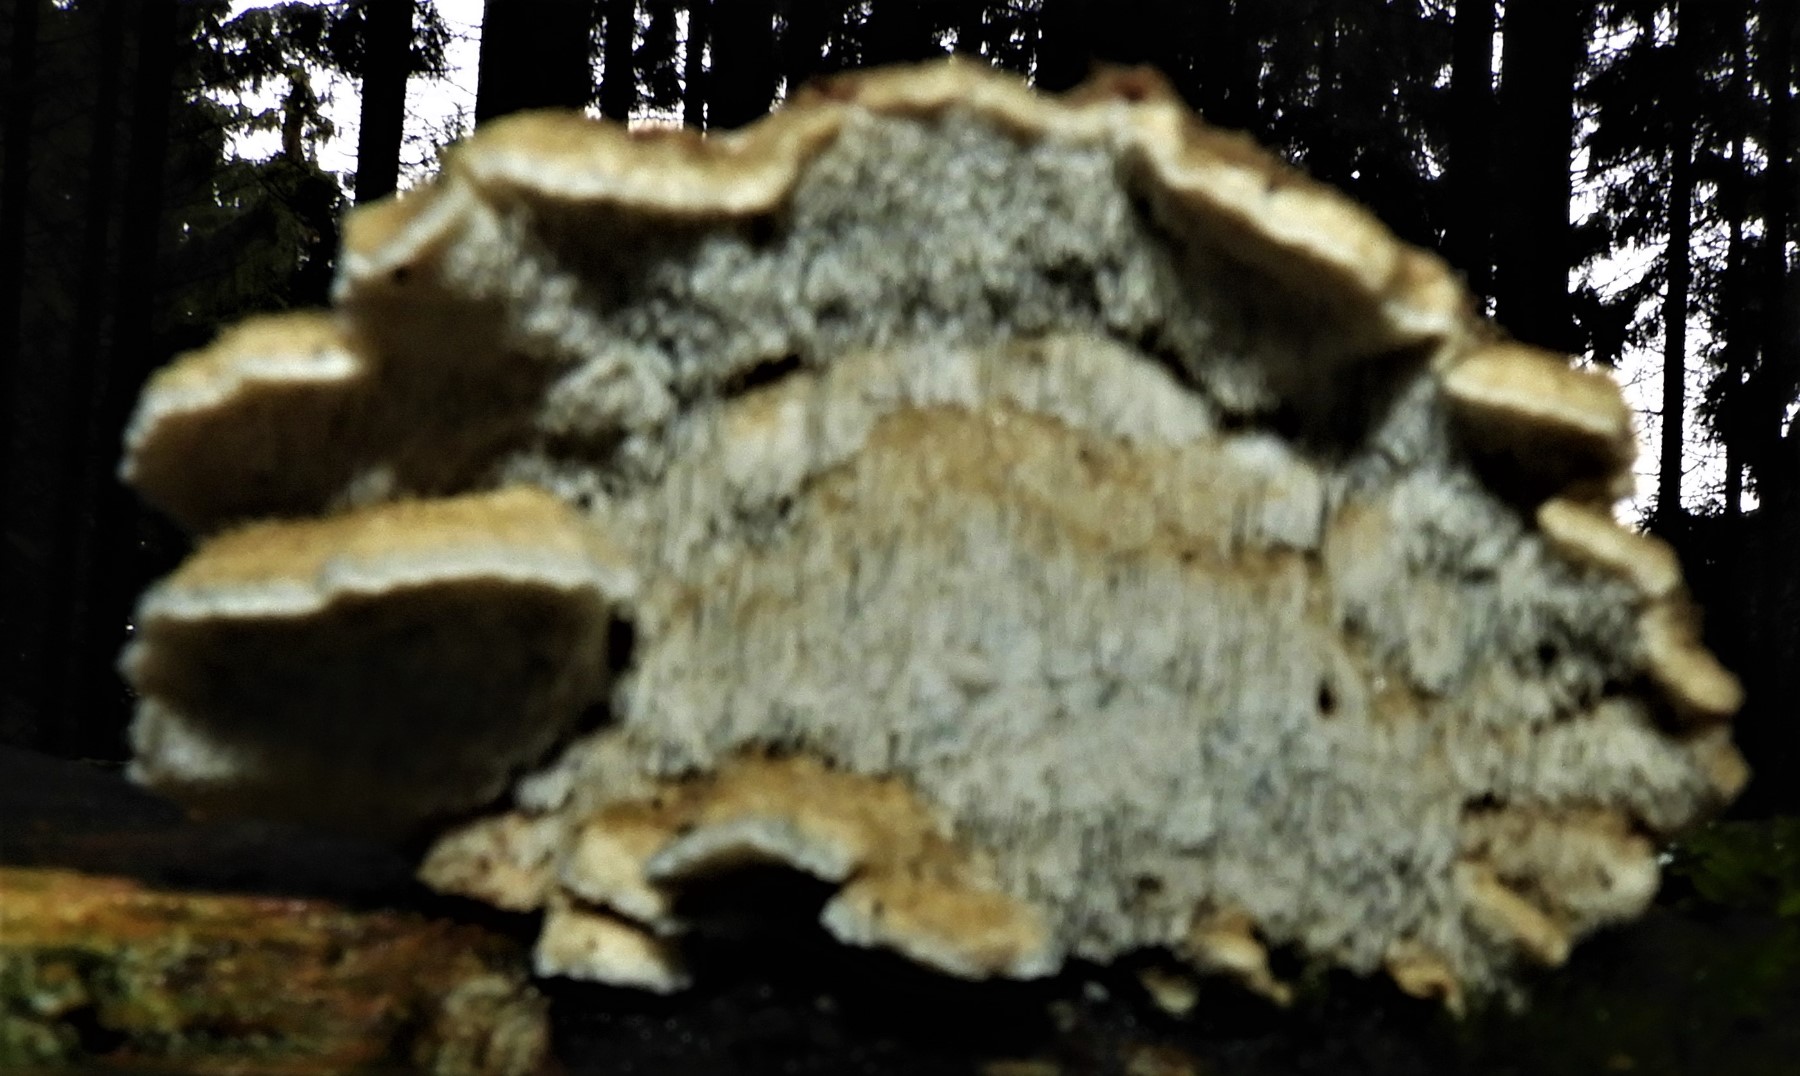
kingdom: Fungi
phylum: Basidiomycota
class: Agaricomycetes
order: Polyporales
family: Polyporaceae
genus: Cyanosporus
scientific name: Cyanosporus caesius
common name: blålig kødporesvamp
